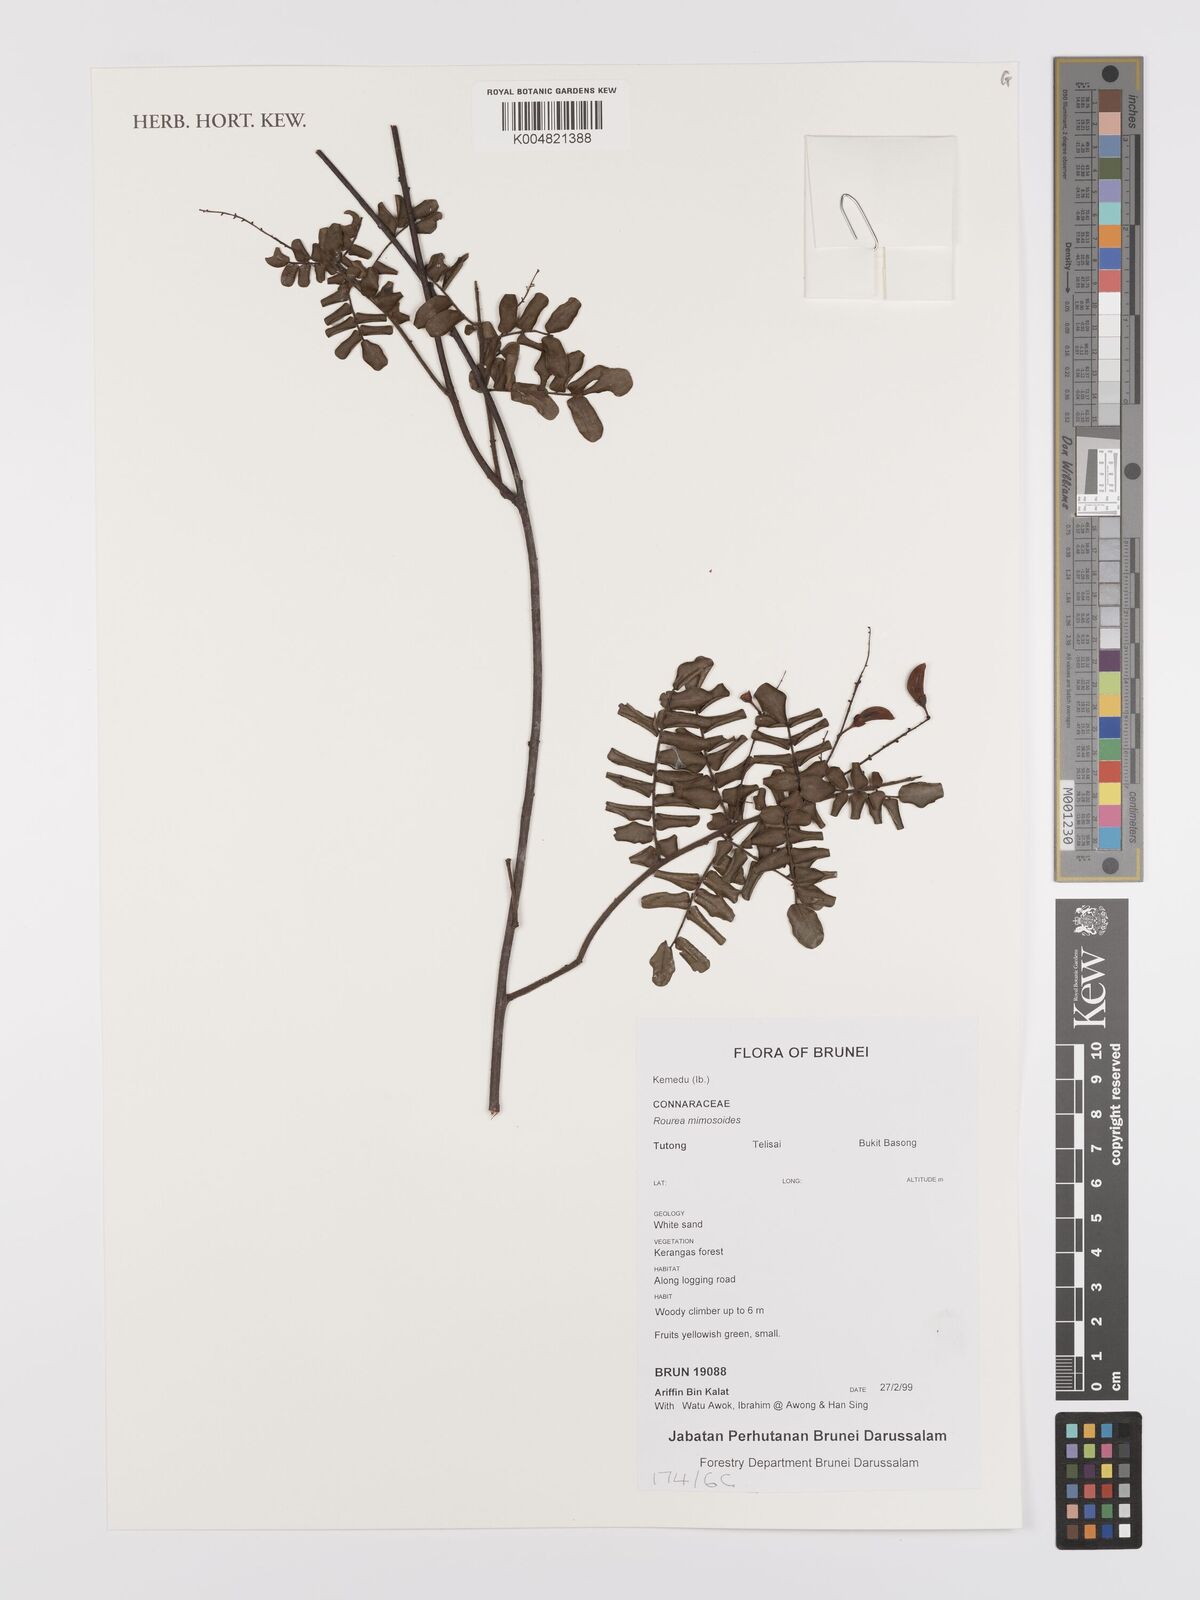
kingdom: Plantae
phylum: Tracheophyta
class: Magnoliopsida
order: Oxalidales
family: Connaraceae
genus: Rourea
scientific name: Rourea mimosoides
